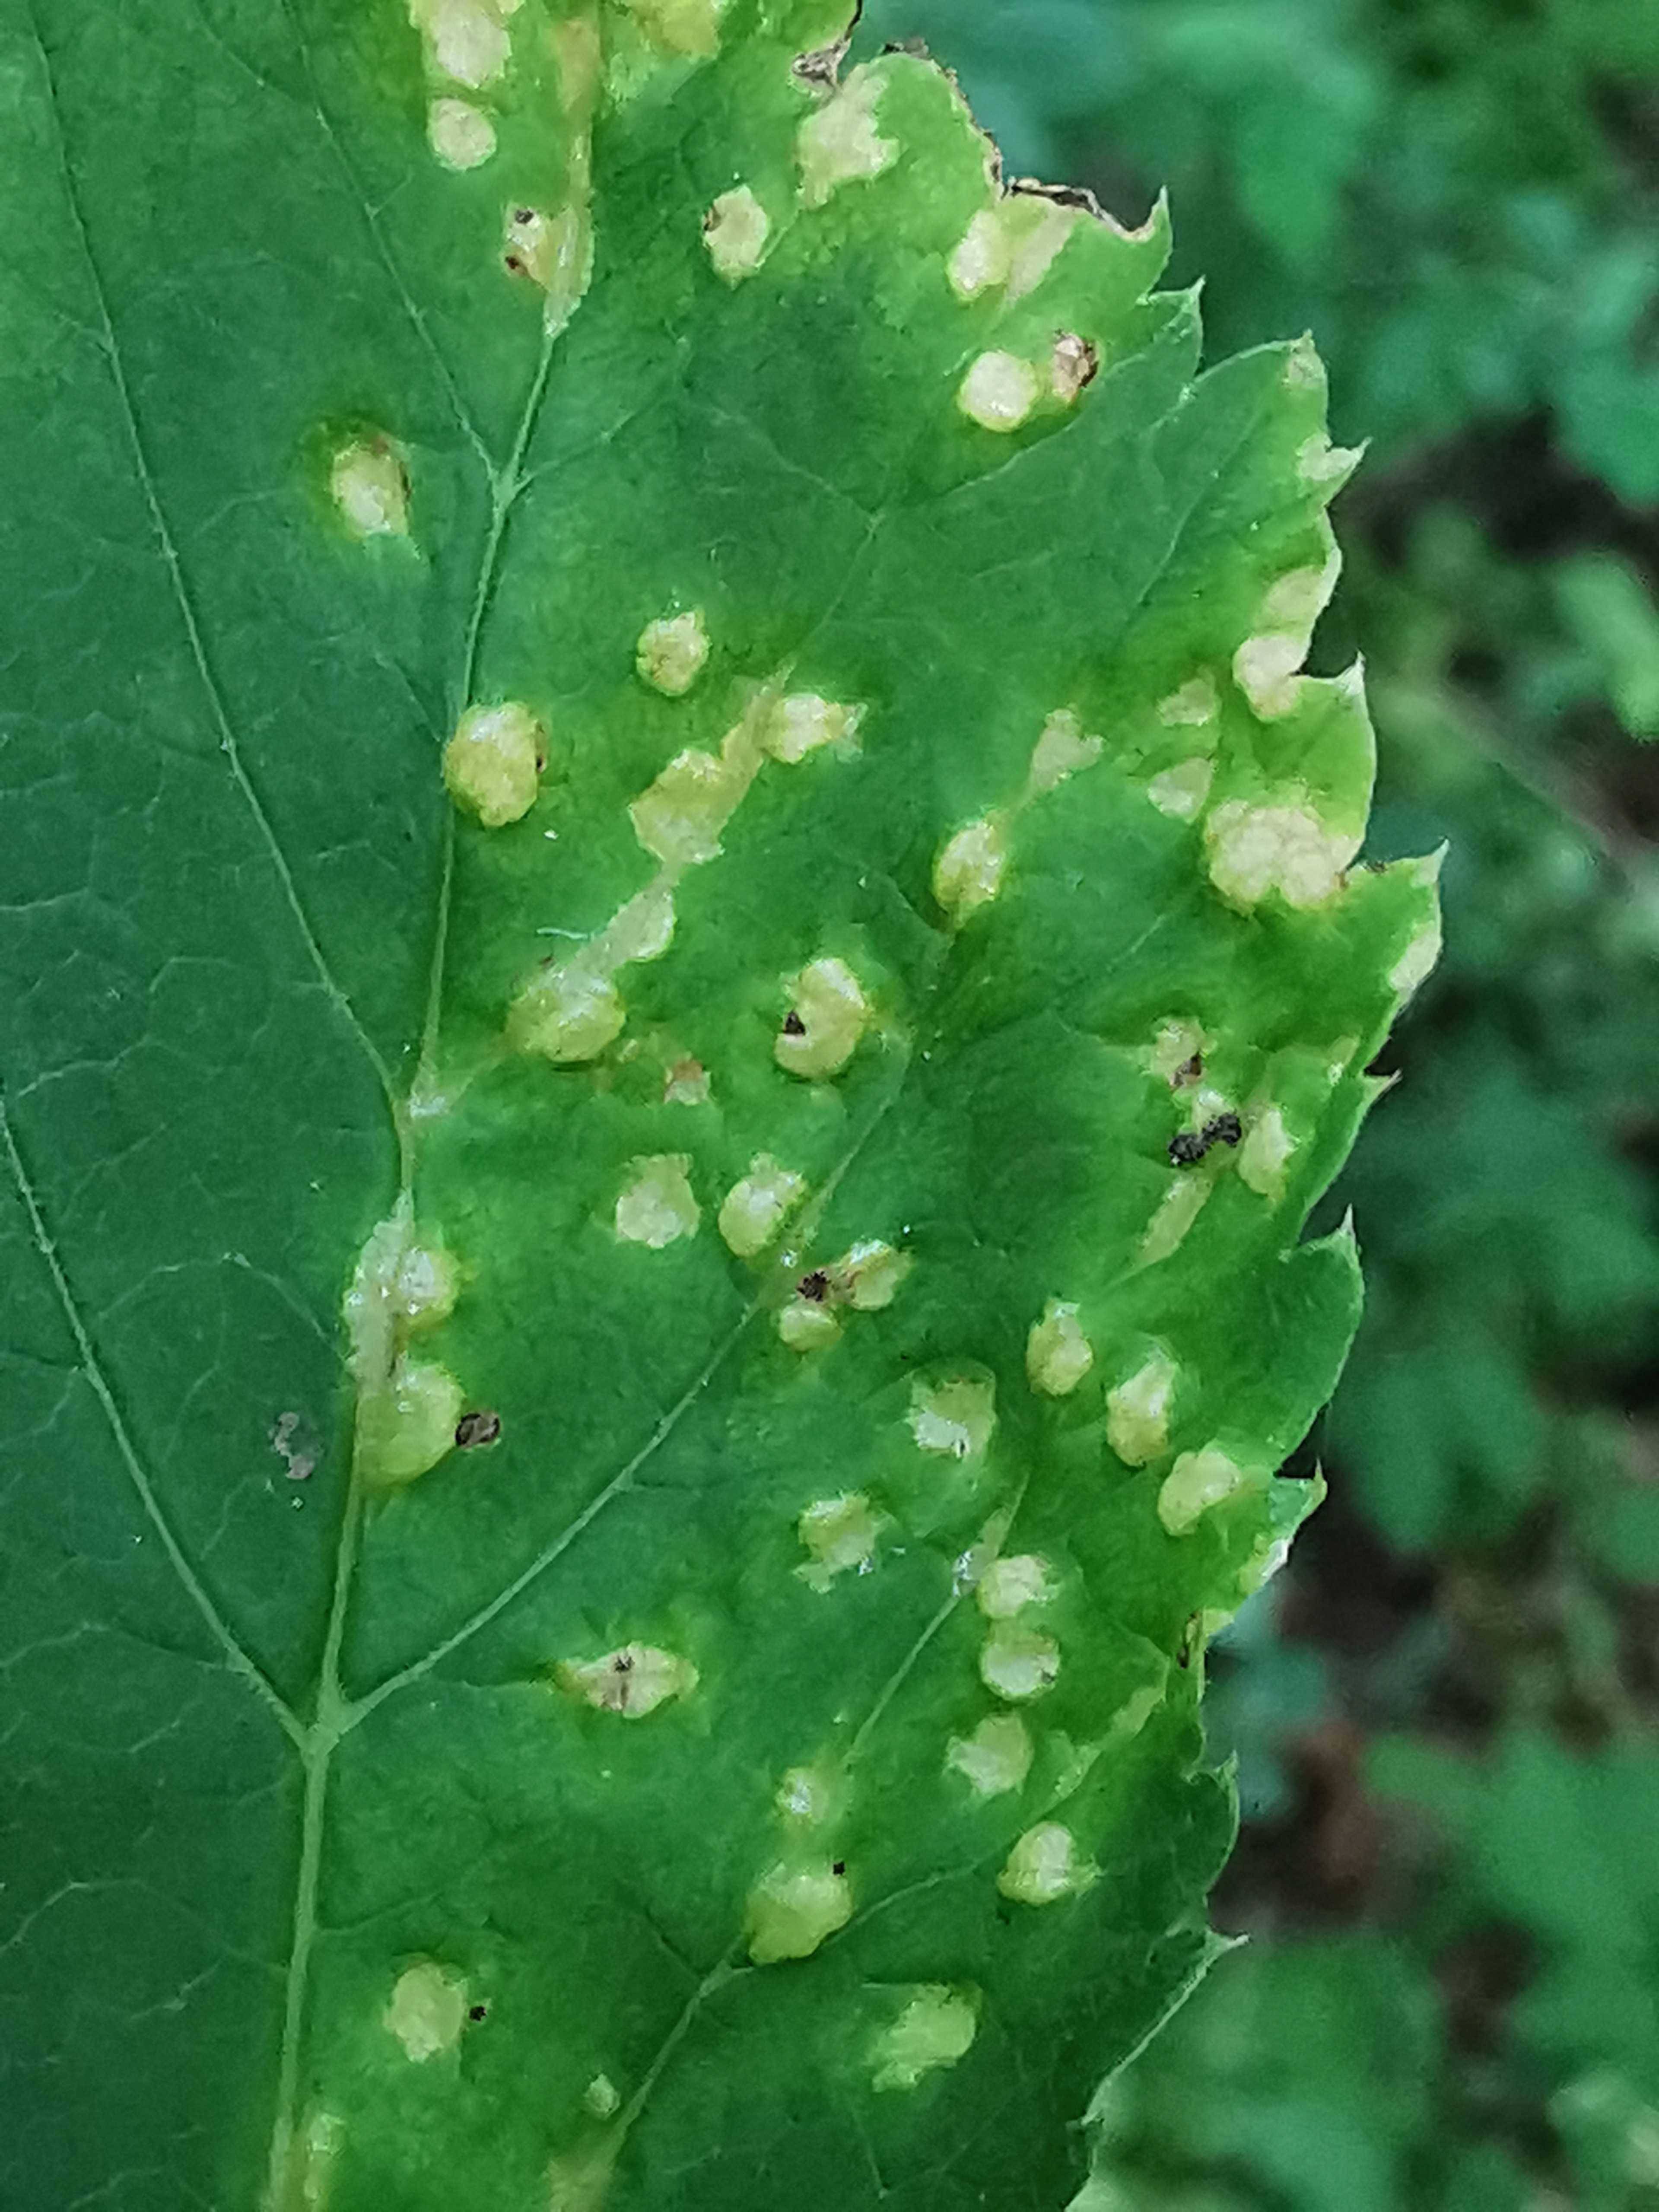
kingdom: Fungi
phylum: Ascomycota
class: Taphrinomycetes
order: Taphrinales
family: Taphrinaceae
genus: Protomyces
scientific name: Protomyces macrosporus
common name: skvalderkål-vablesæk
